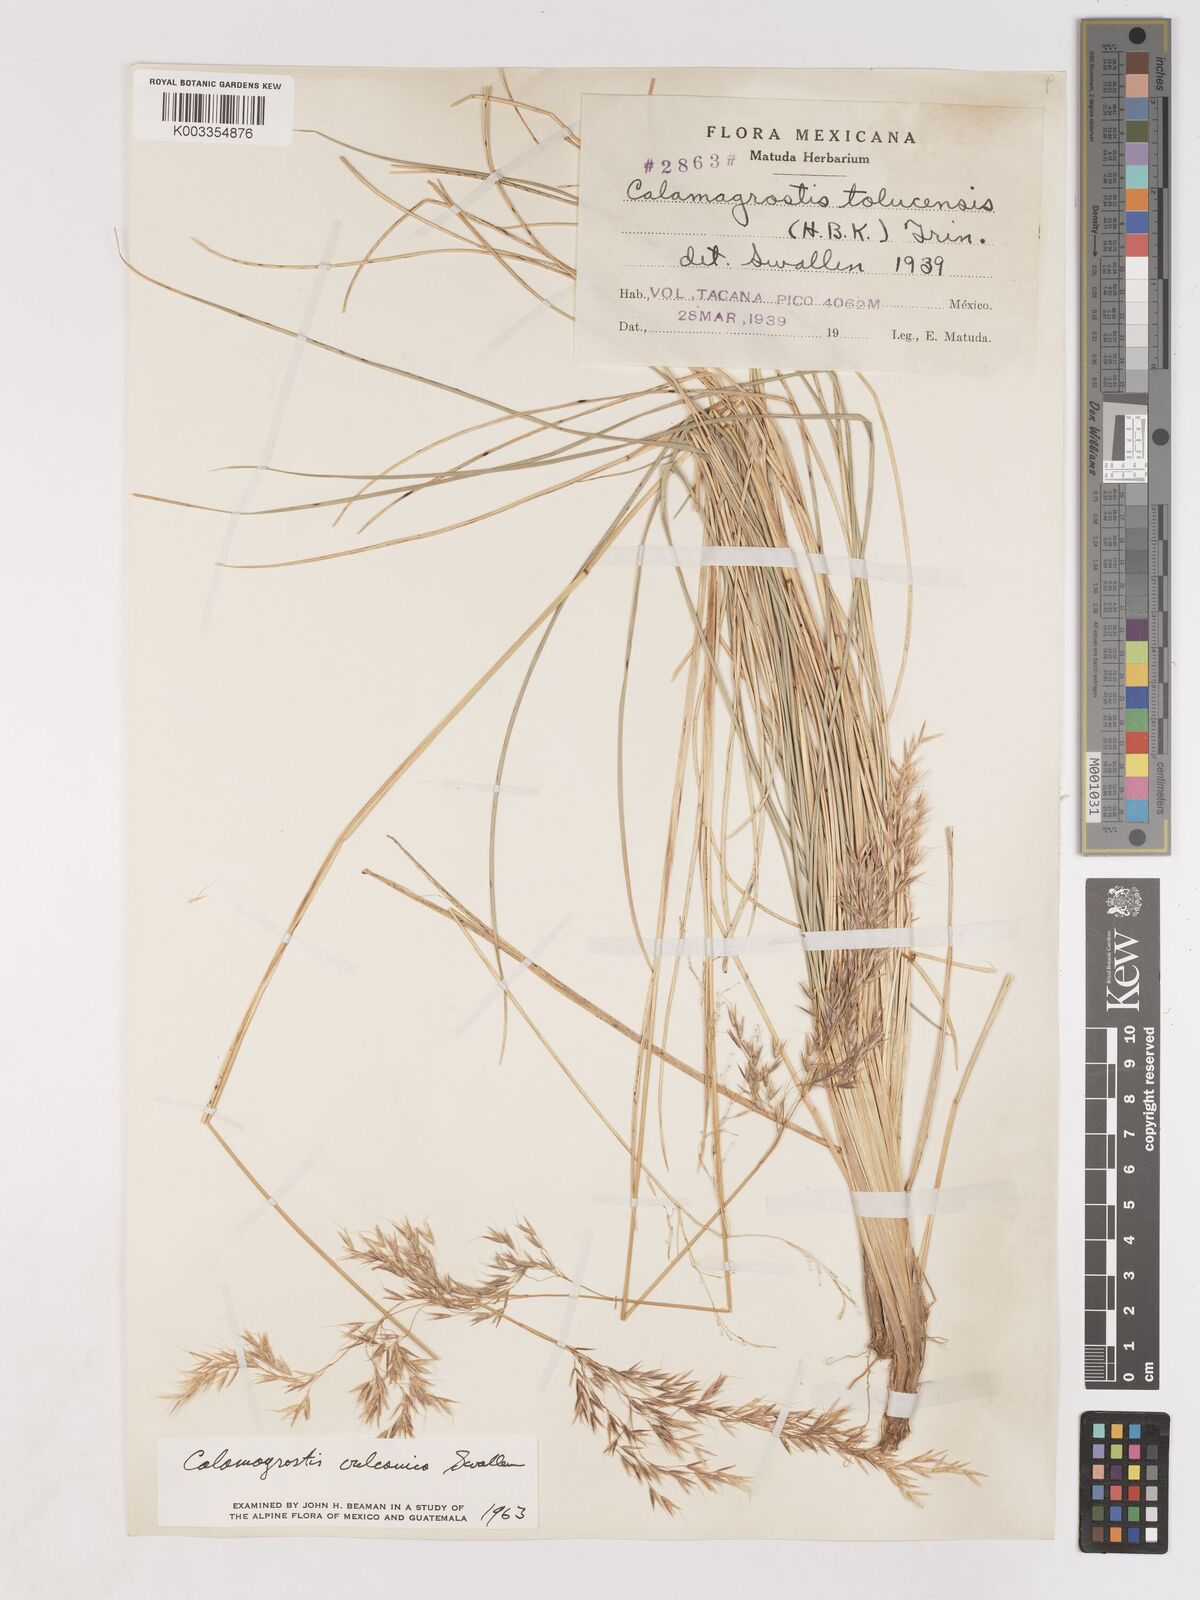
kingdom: Plantae
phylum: Tracheophyta
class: Liliopsida
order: Poales
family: Poaceae
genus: Poa
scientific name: Poa obvallata
